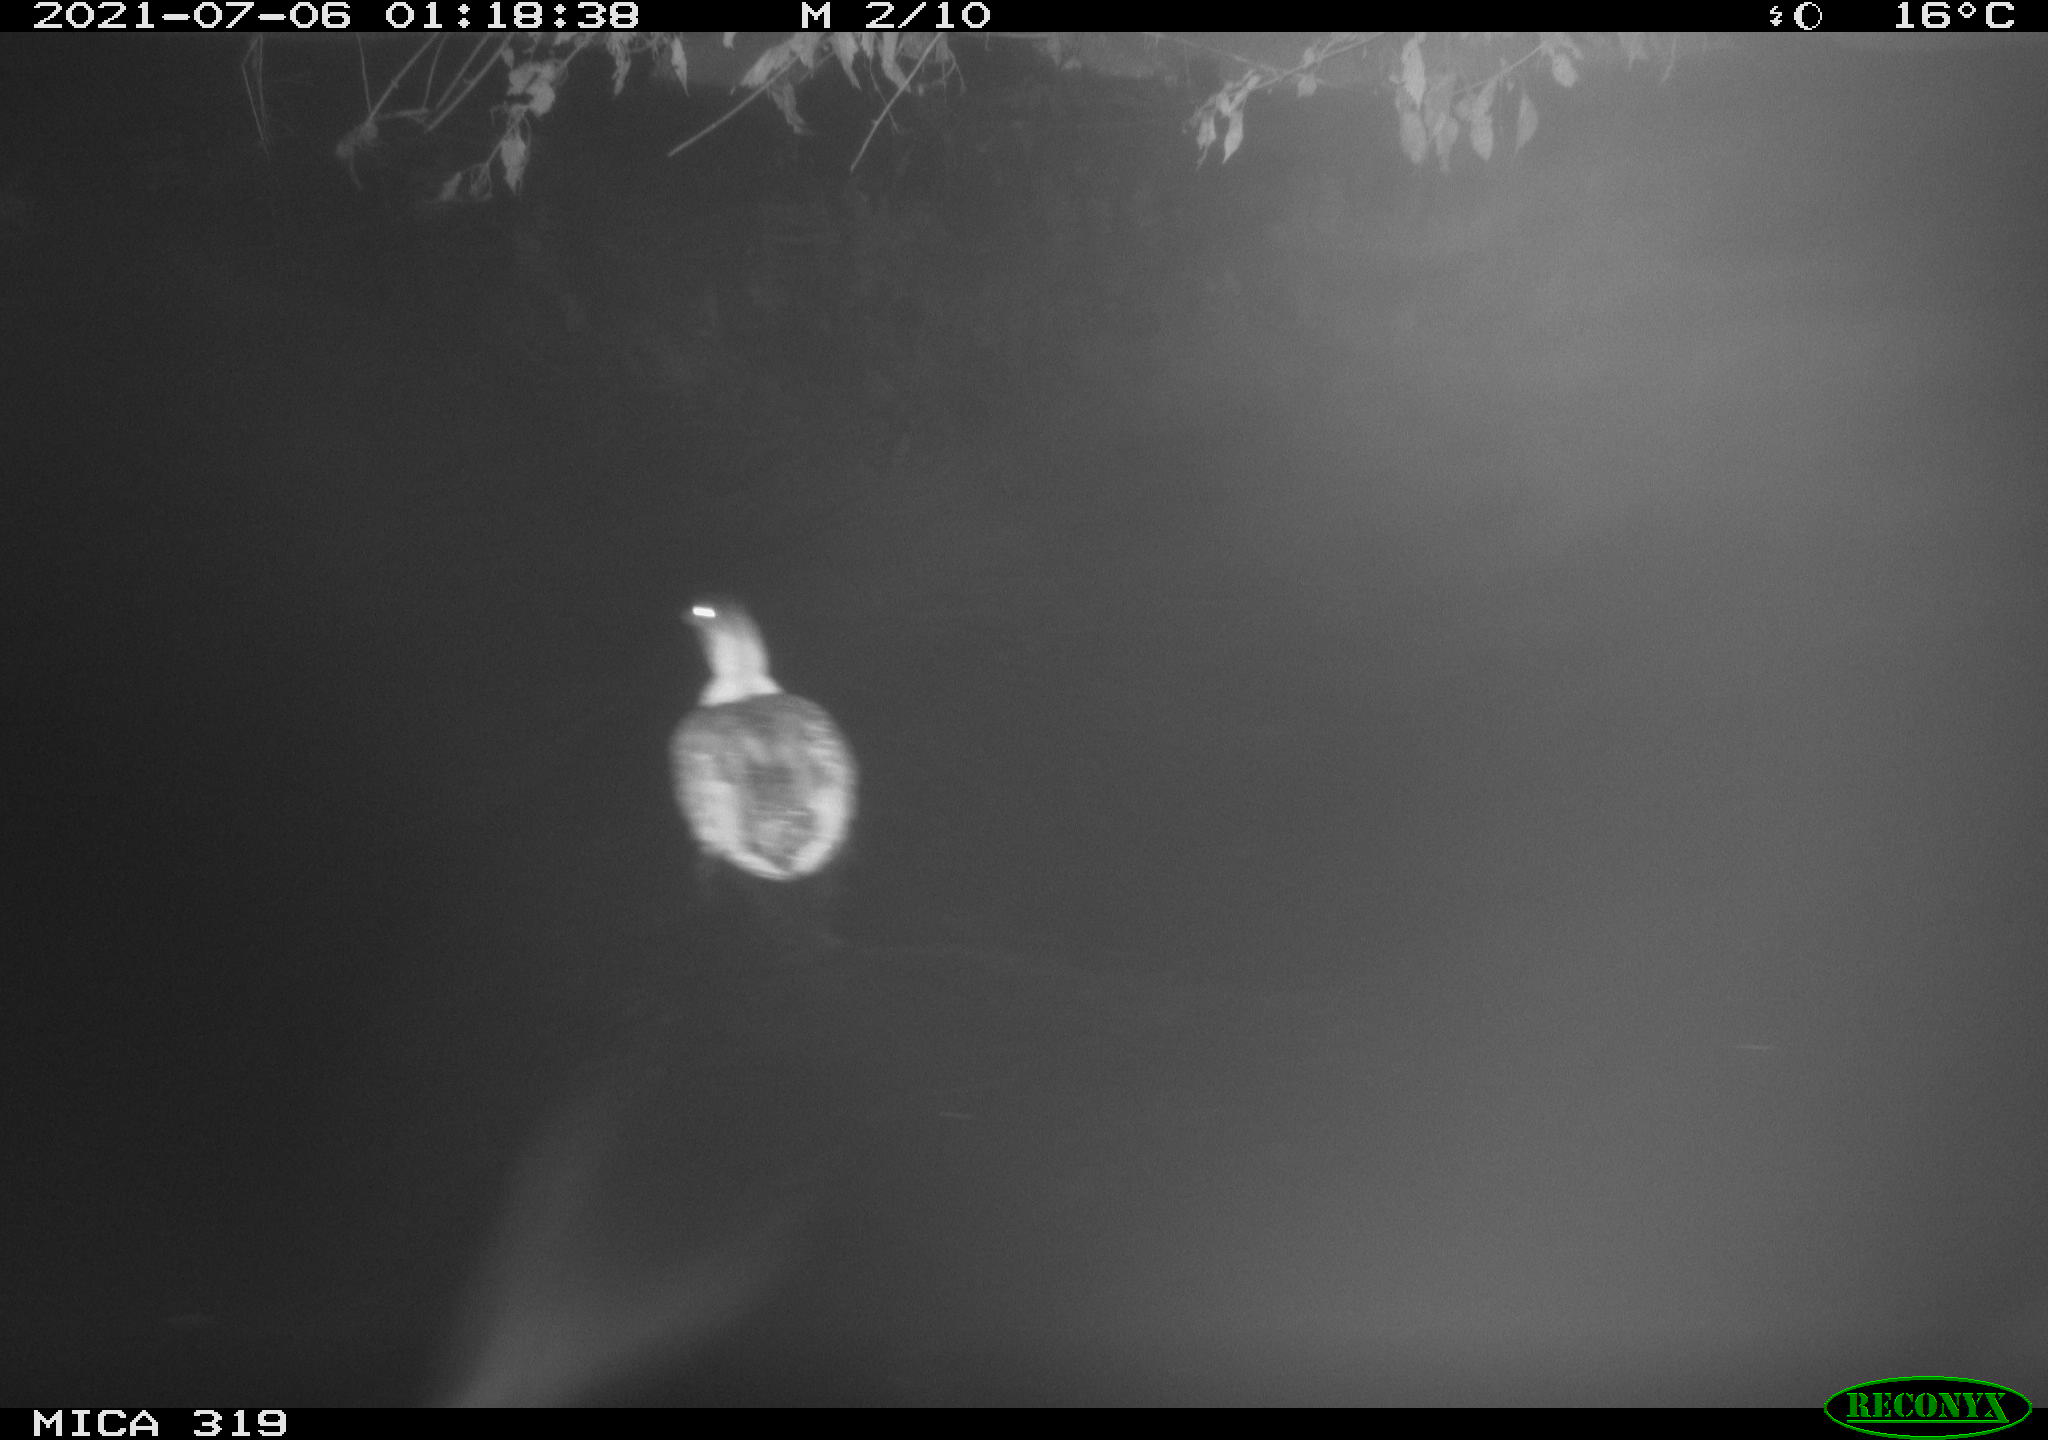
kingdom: Animalia
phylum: Chordata
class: Aves
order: Anseriformes
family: Anatidae
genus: Anas
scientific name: Anas platyrhynchos
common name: Mallard
